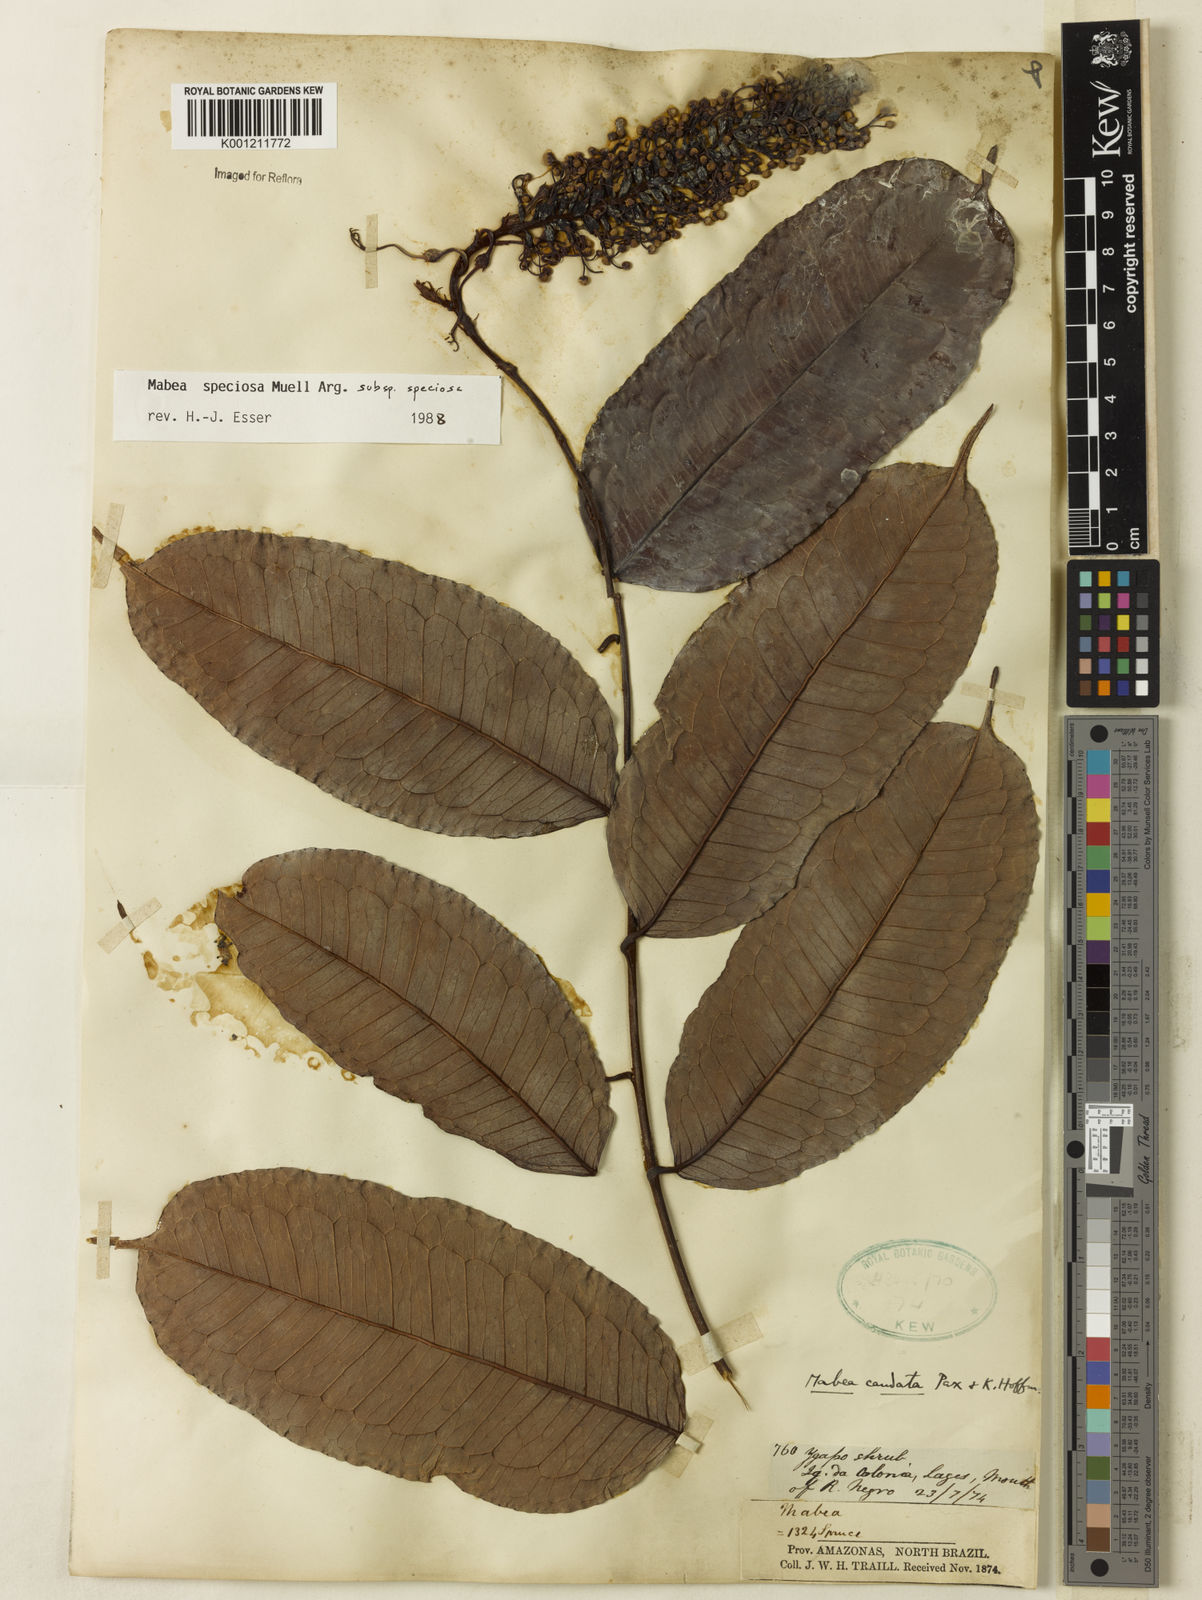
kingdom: Plantae
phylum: Tracheophyta
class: Magnoliopsida
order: Malpighiales
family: Euphorbiaceae
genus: Mabea
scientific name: Mabea
